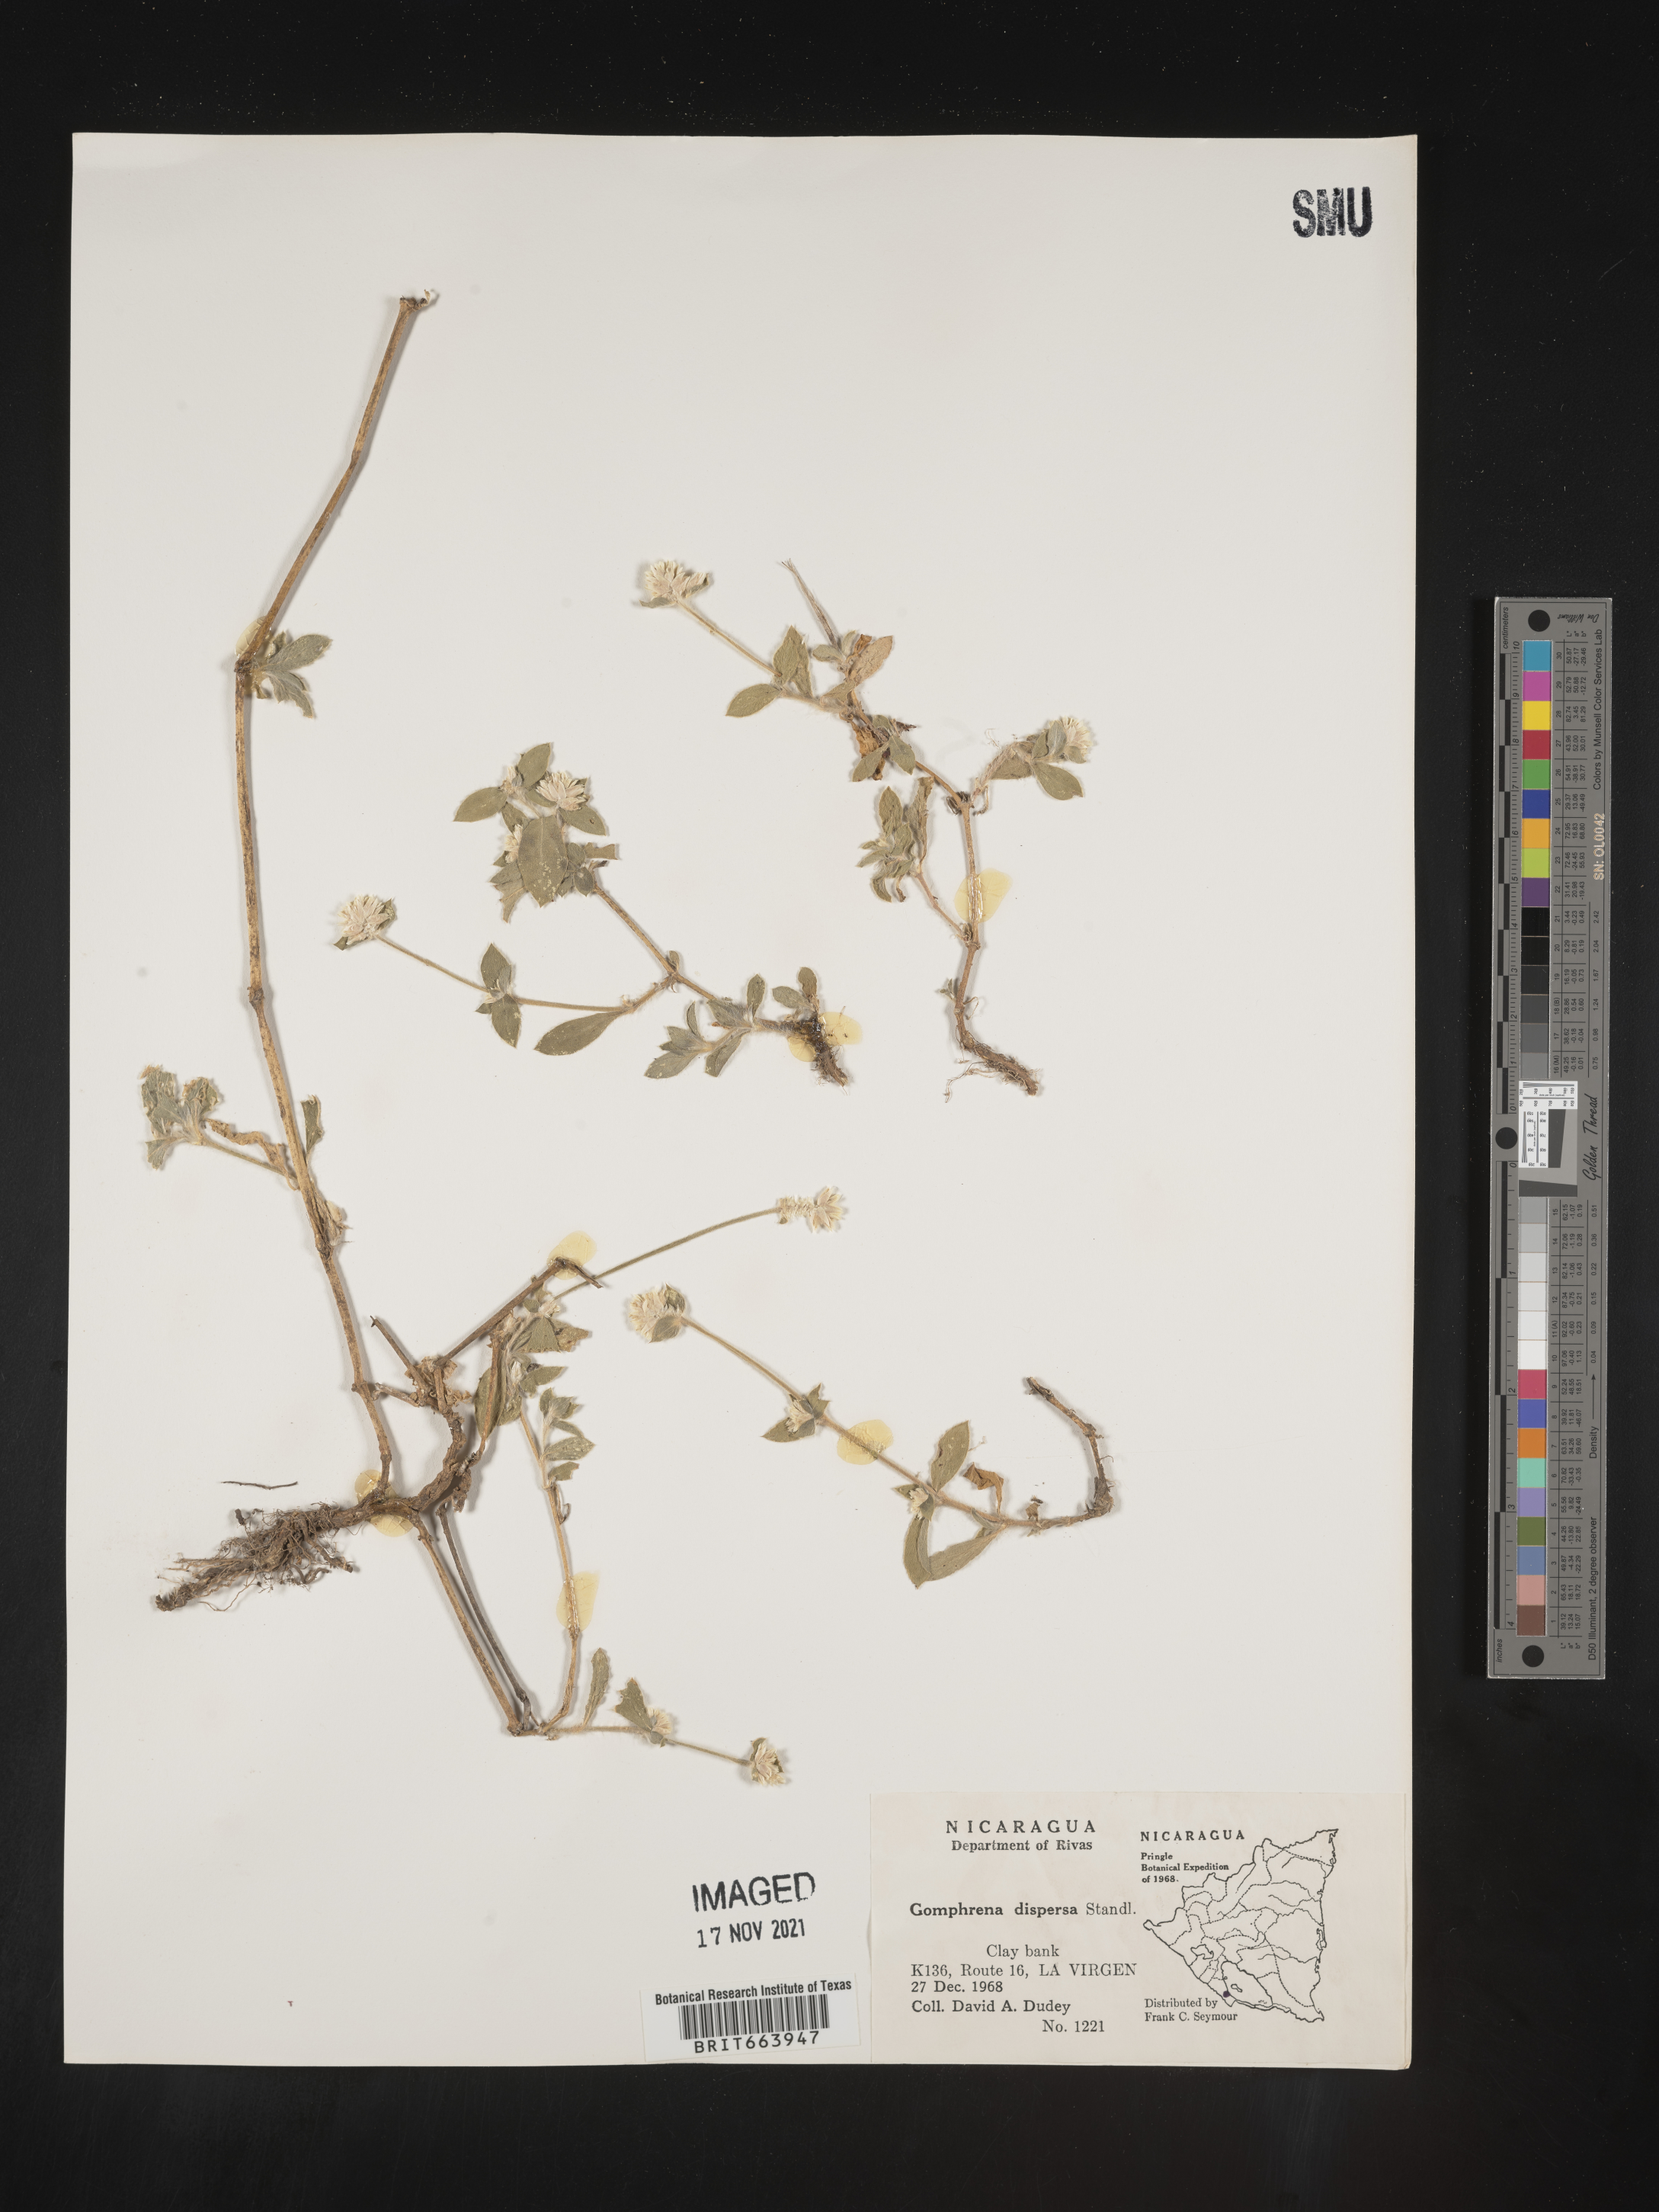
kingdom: Plantae
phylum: Tracheophyta
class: Magnoliopsida
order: Caryophyllales
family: Amaranthaceae
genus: Gomphrena
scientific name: Gomphrena
